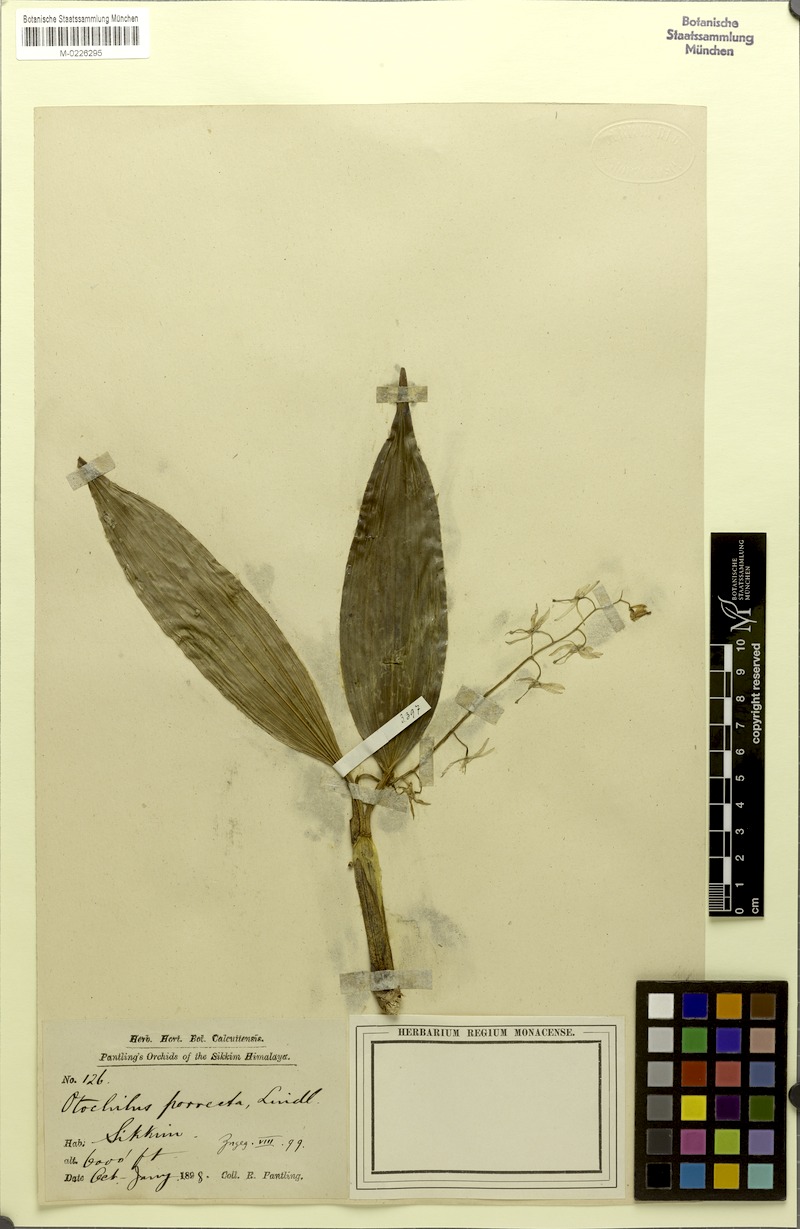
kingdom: Plantae
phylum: Tracheophyta
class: Liliopsida
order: Asparagales
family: Orchidaceae
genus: Coelogyne
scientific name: Coelogyne porrecta
